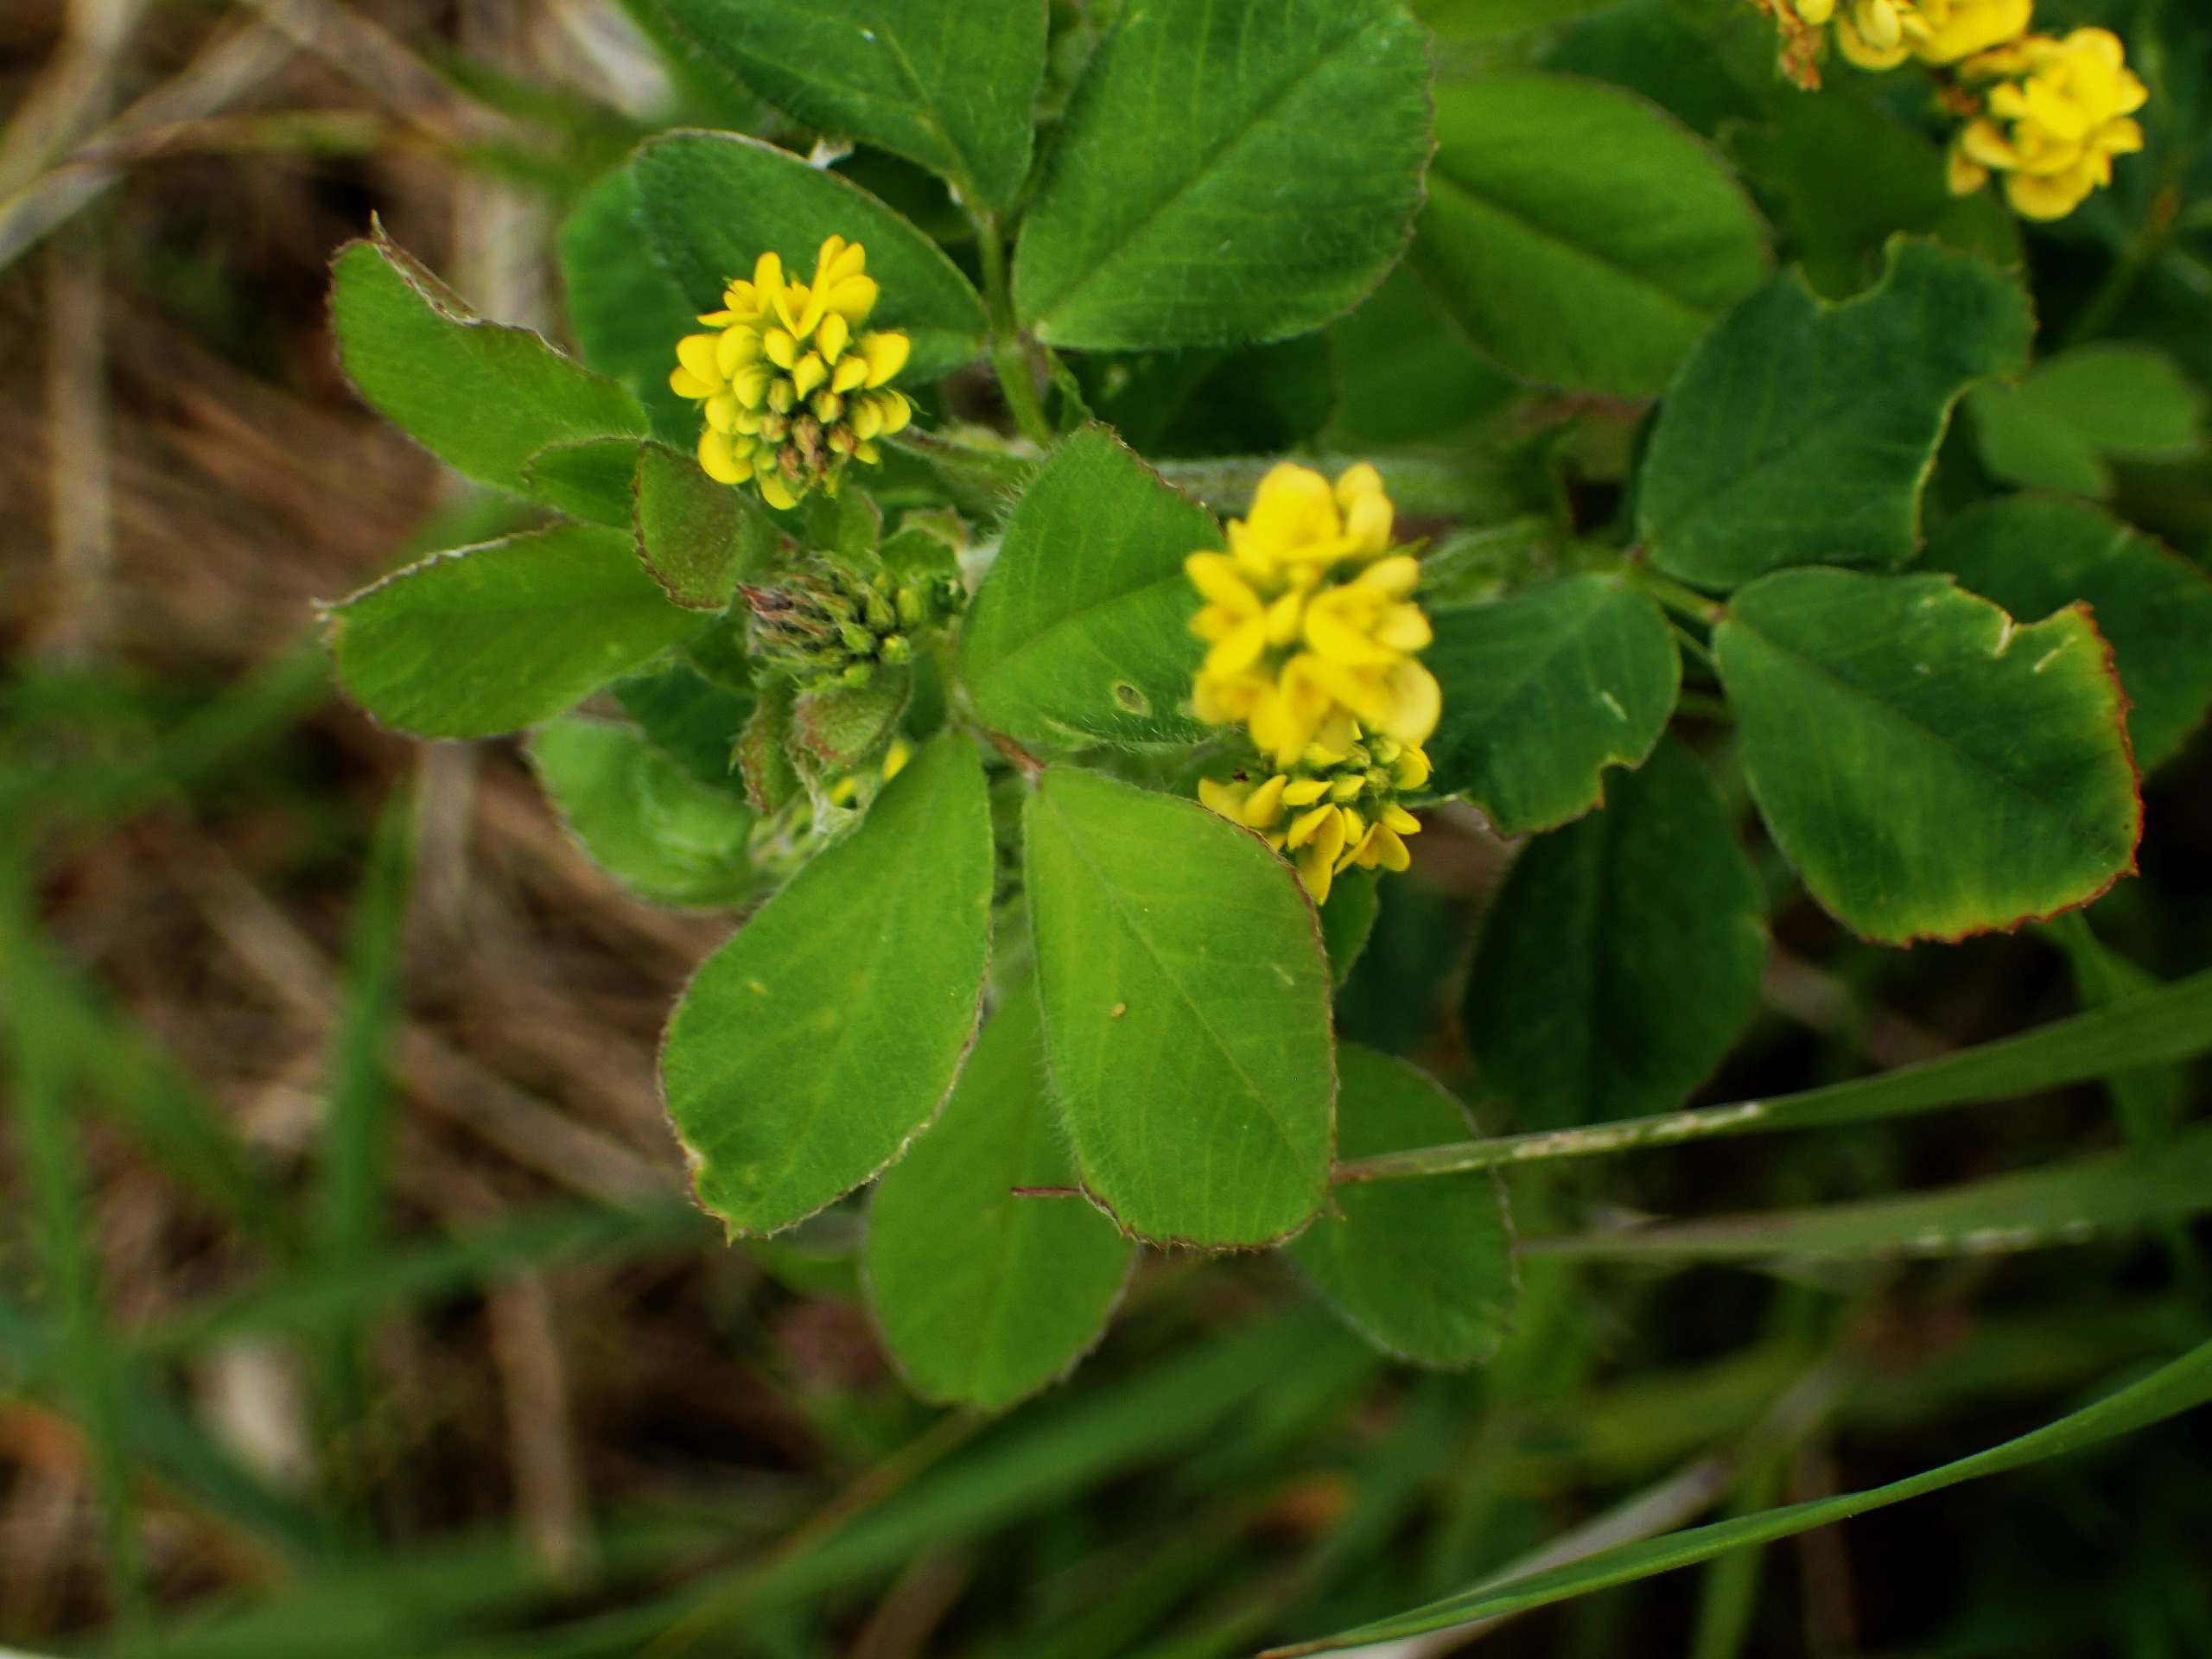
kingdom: Plantae
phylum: Tracheophyta
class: Magnoliopsida
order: Fabales
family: Fabaceae
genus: Medicago
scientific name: Medicago lupulina
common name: Humle-sneglebælg
